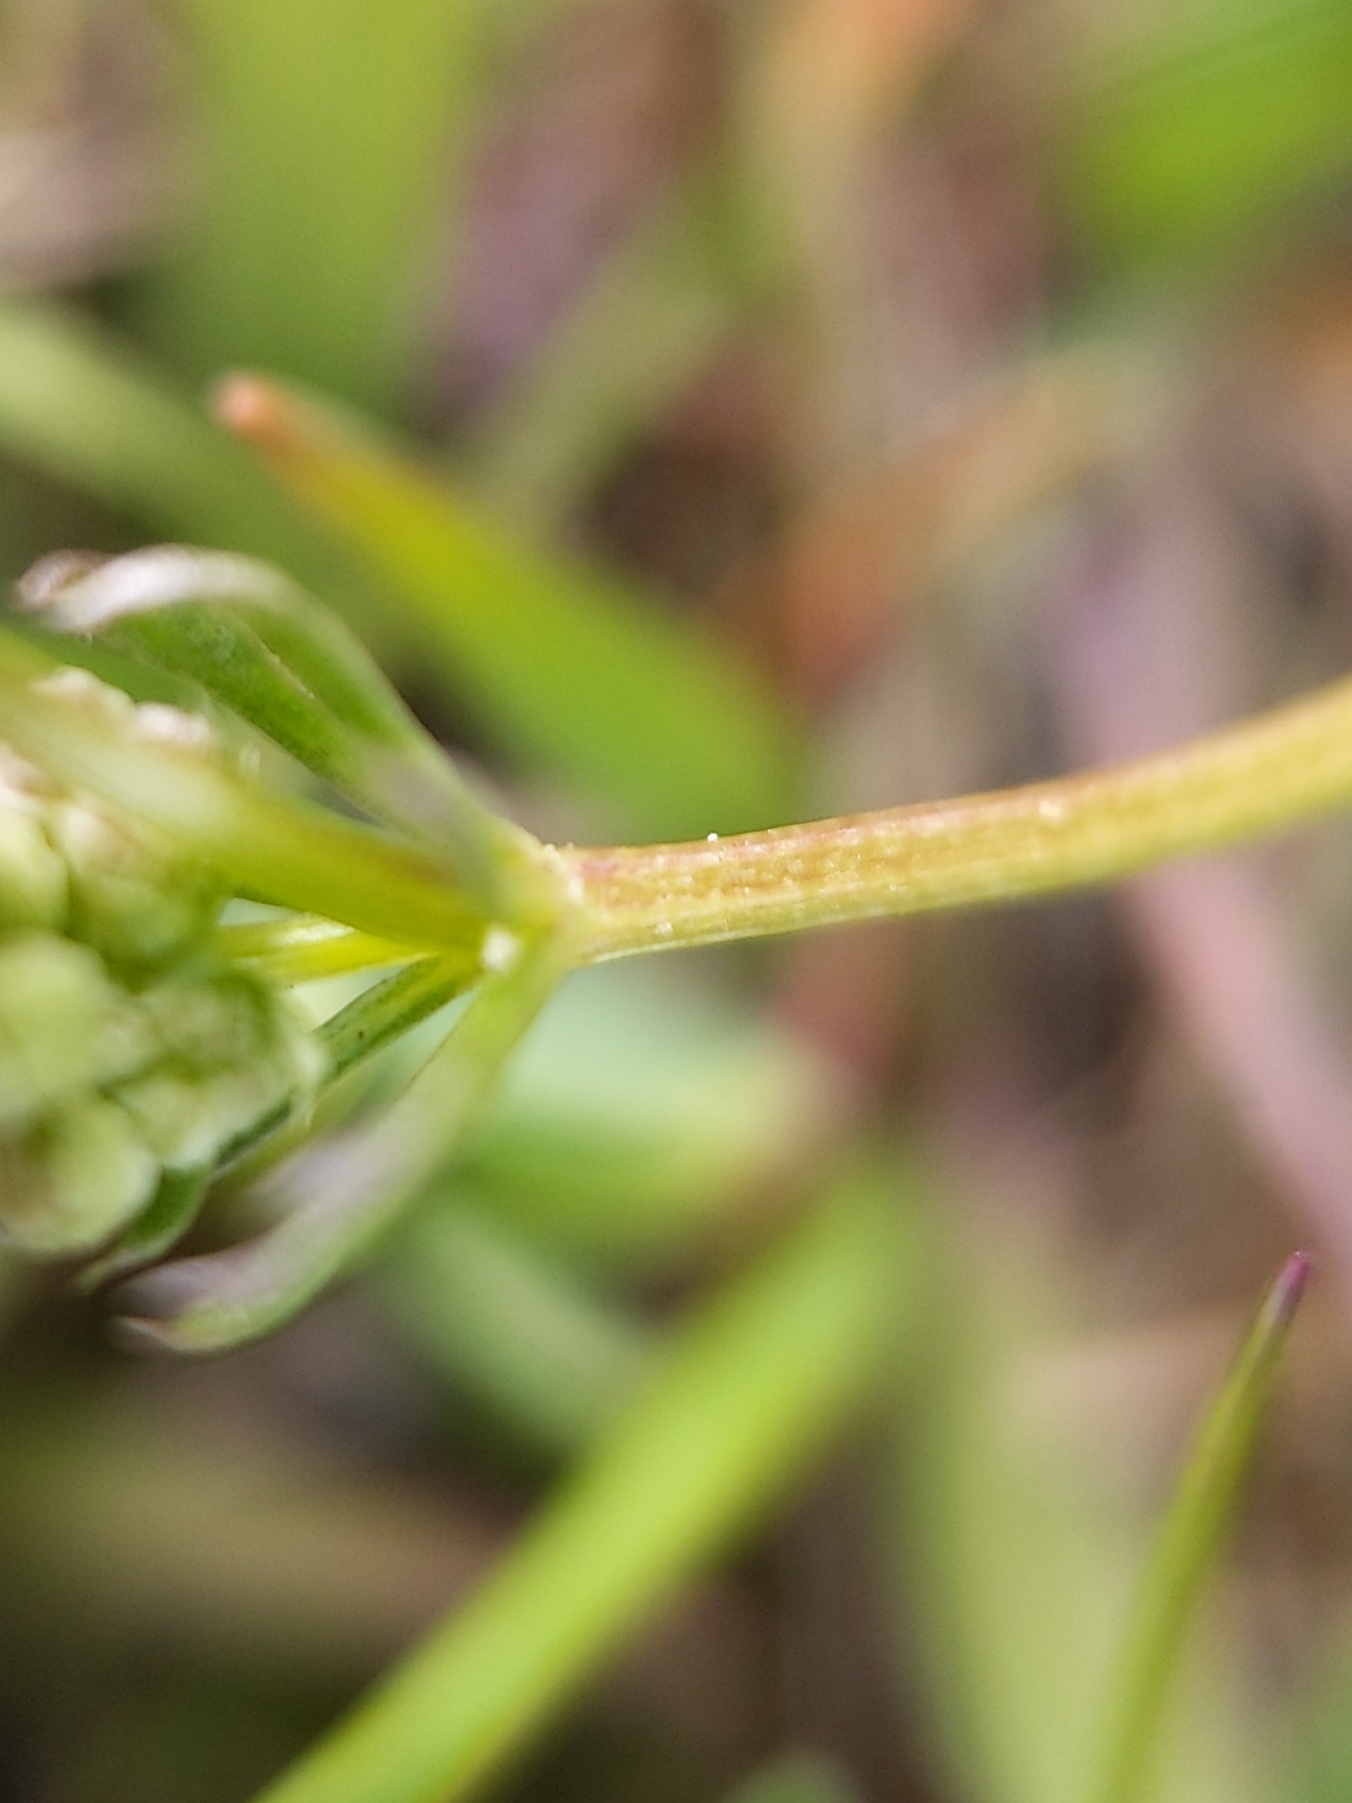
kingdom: Plantae
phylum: Tracheophyta
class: Magnoliopsida
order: Gentianales
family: Rubiaceae
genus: Galium
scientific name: Galium sterneri
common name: Liden snerre
